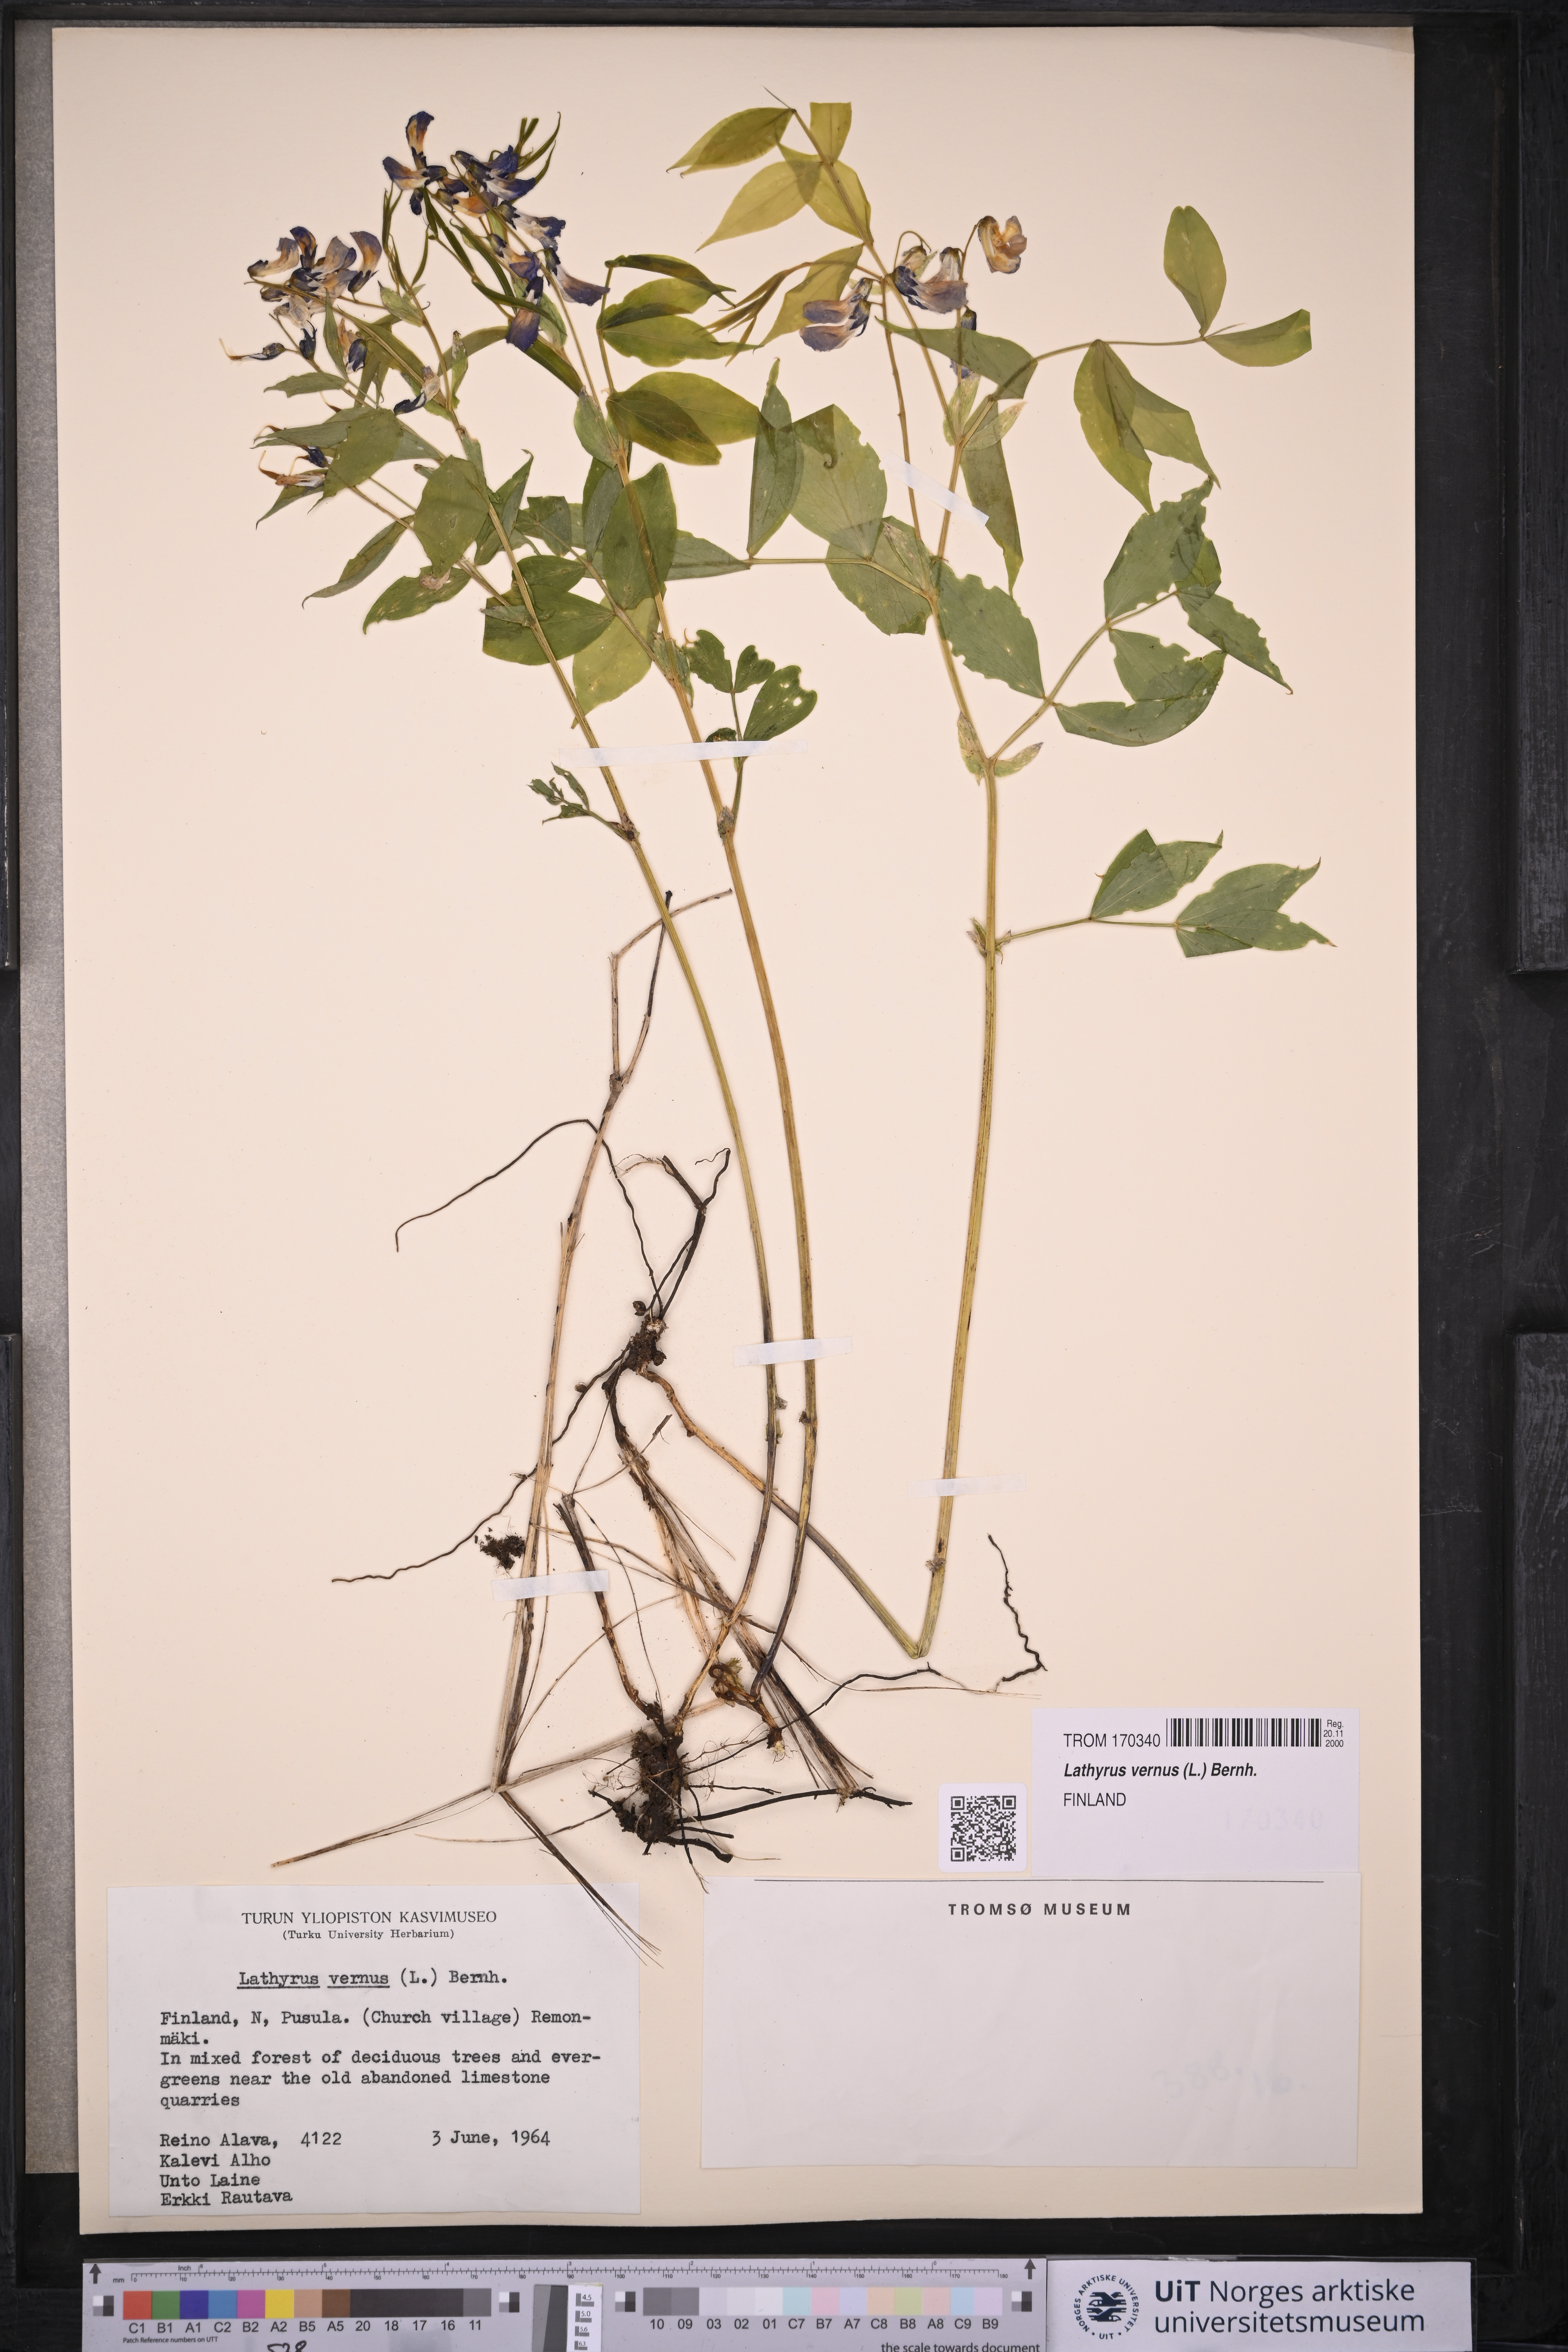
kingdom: Plantae
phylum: Tracheophyta
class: Magnoliopsida
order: Fabales
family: Fabaceae
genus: Lathyrus
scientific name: Lathyrus vernus
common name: Spring pea
